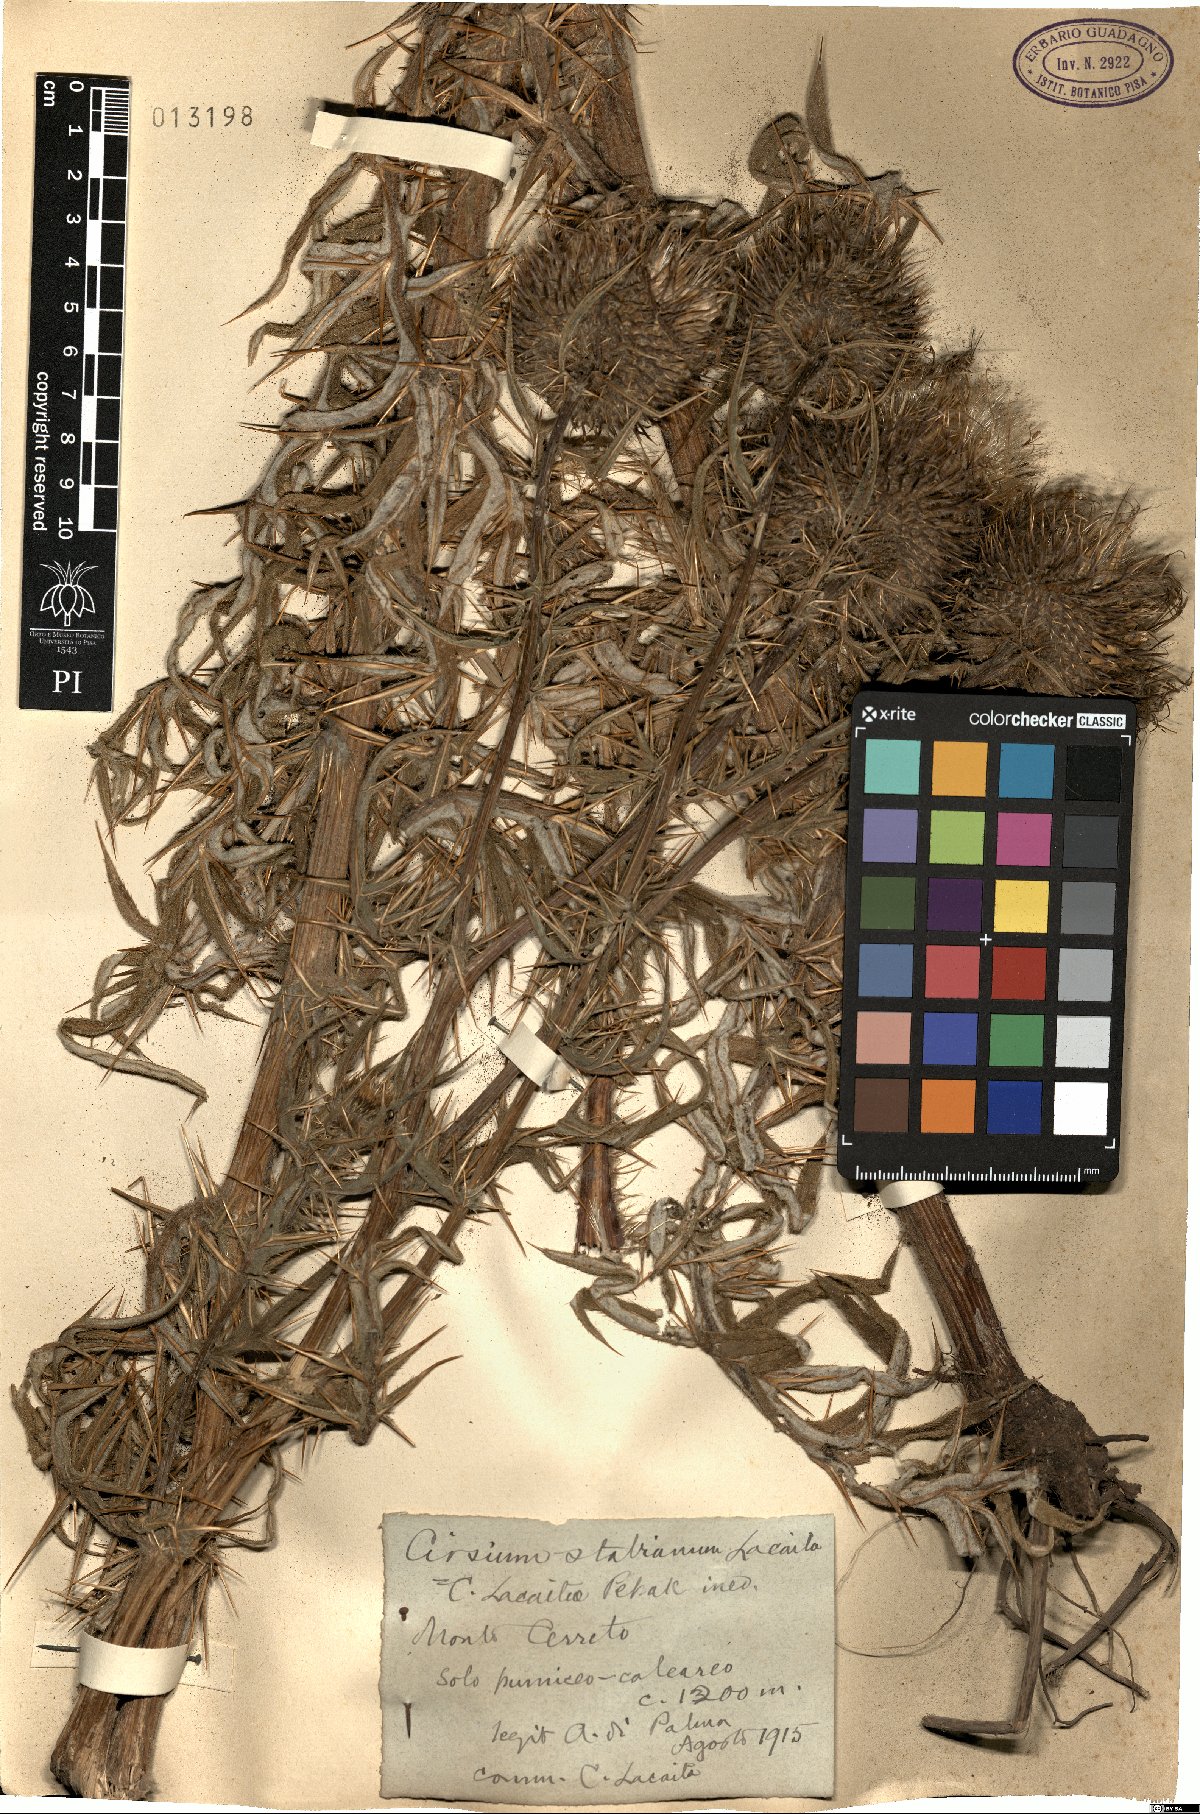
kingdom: Plantae
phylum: Tracheophyta
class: Magnoliopsida
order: Asterales
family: Asteraceae
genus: Lophiolepis
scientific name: Lophiolepis lacaitae
